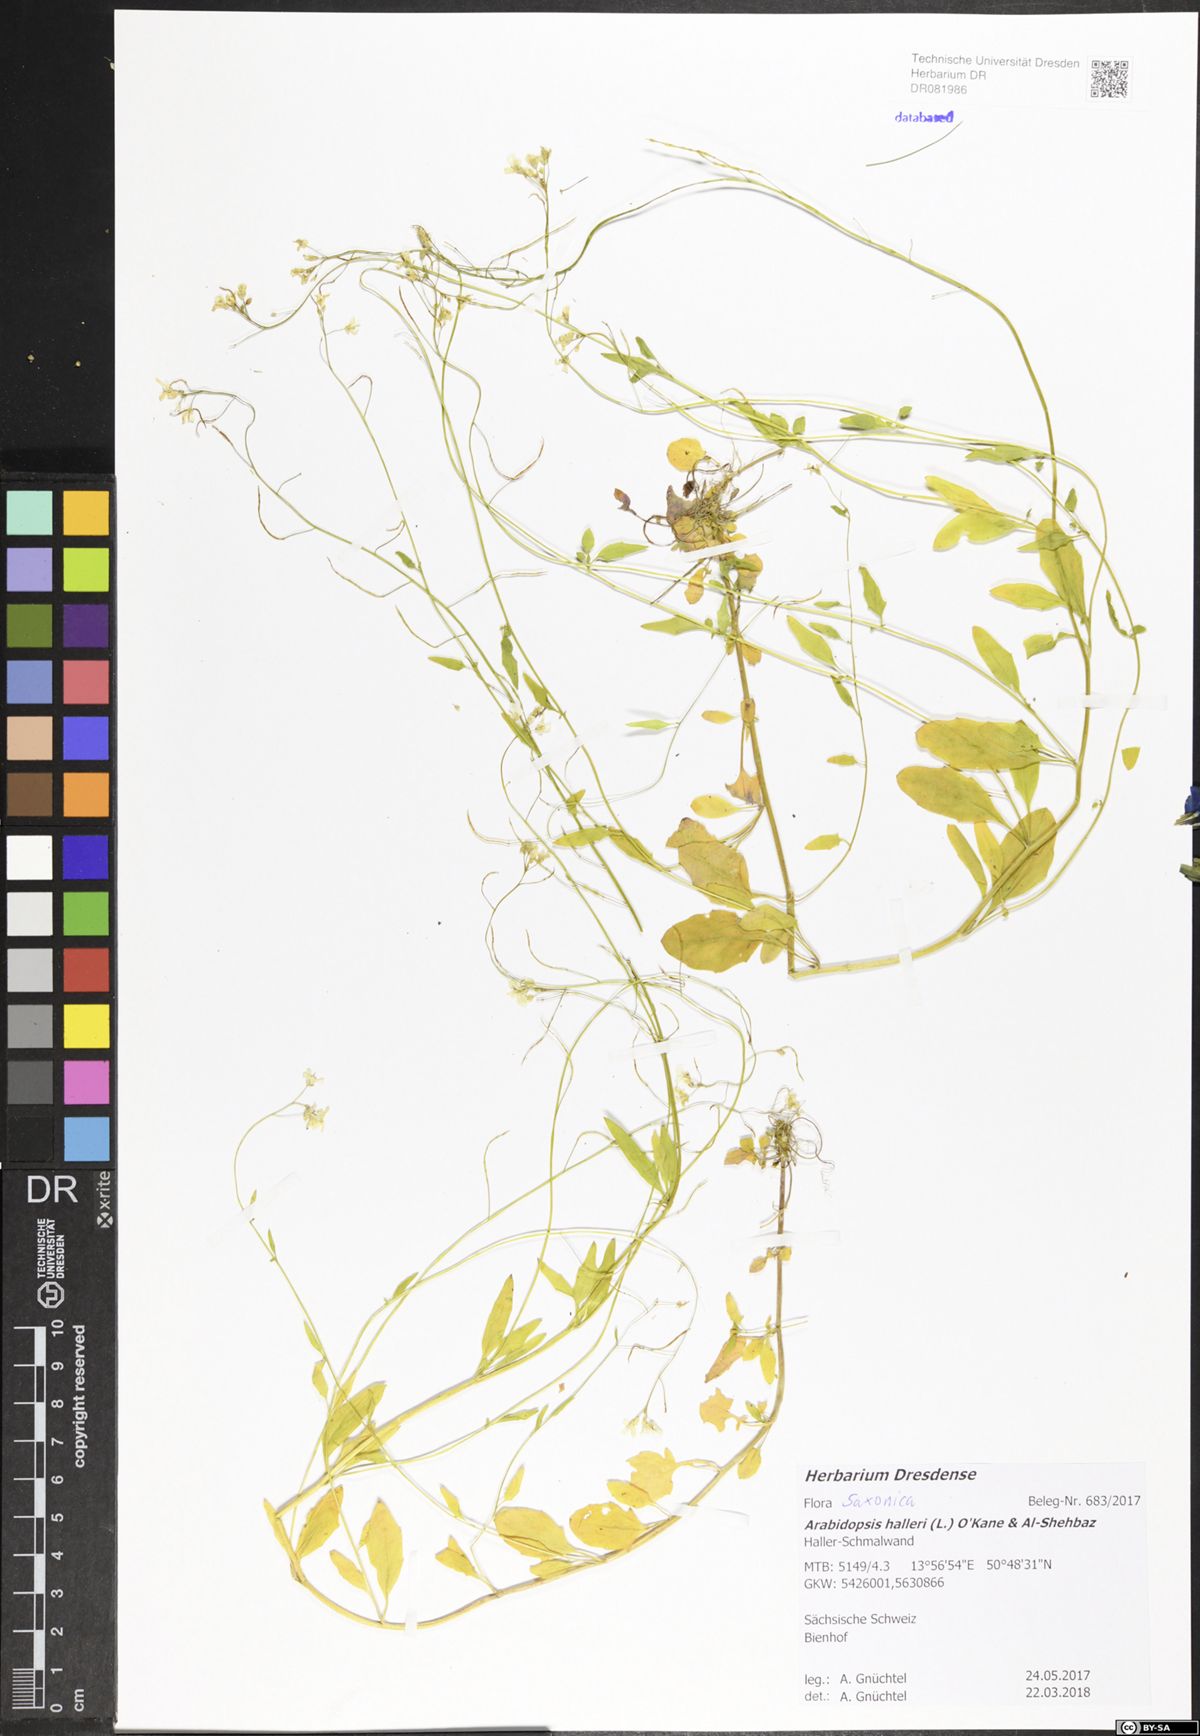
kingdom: Plantae
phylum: Tracheophyta
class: Magnoliopsida
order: Brassicales
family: Brassicaceae
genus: Arabidopsis
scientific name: Arabidopsis halleri
